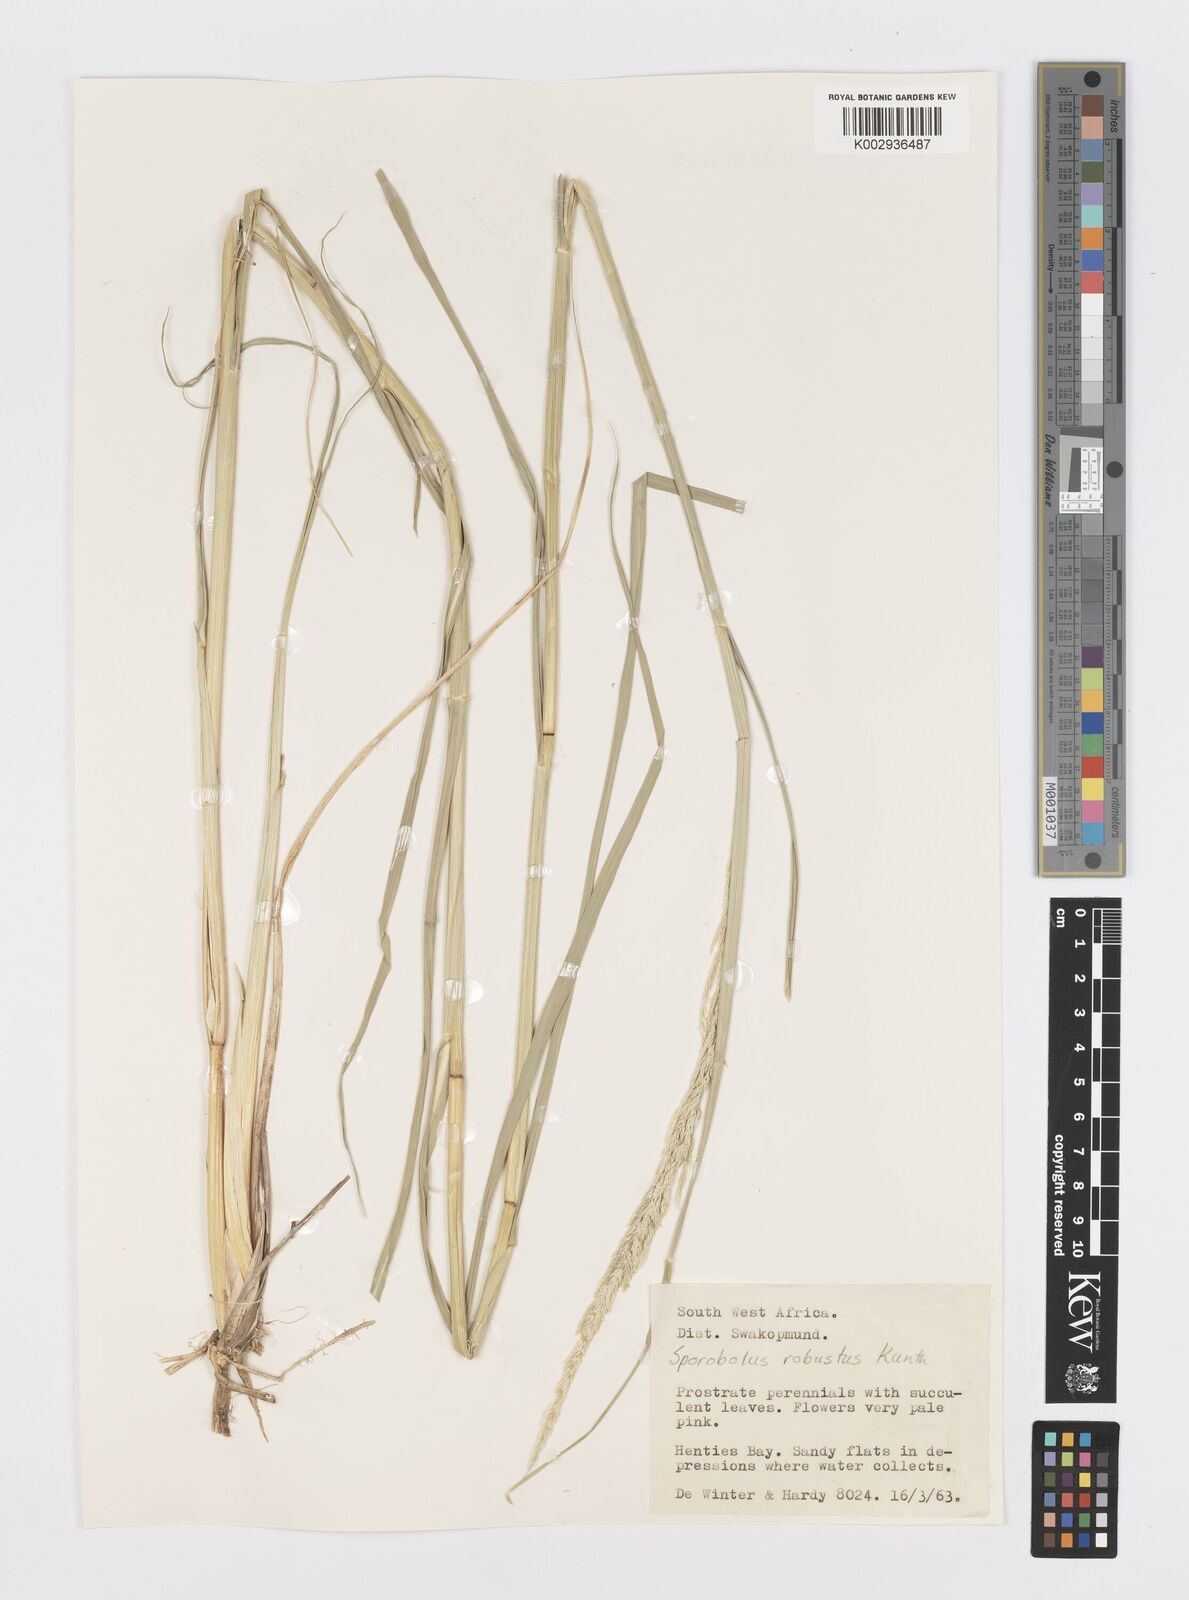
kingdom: Plantae
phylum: Tracheophyta
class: Liliopsida
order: Poales
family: Poaceae
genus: Sporobolus
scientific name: Sporobolus consimilis
